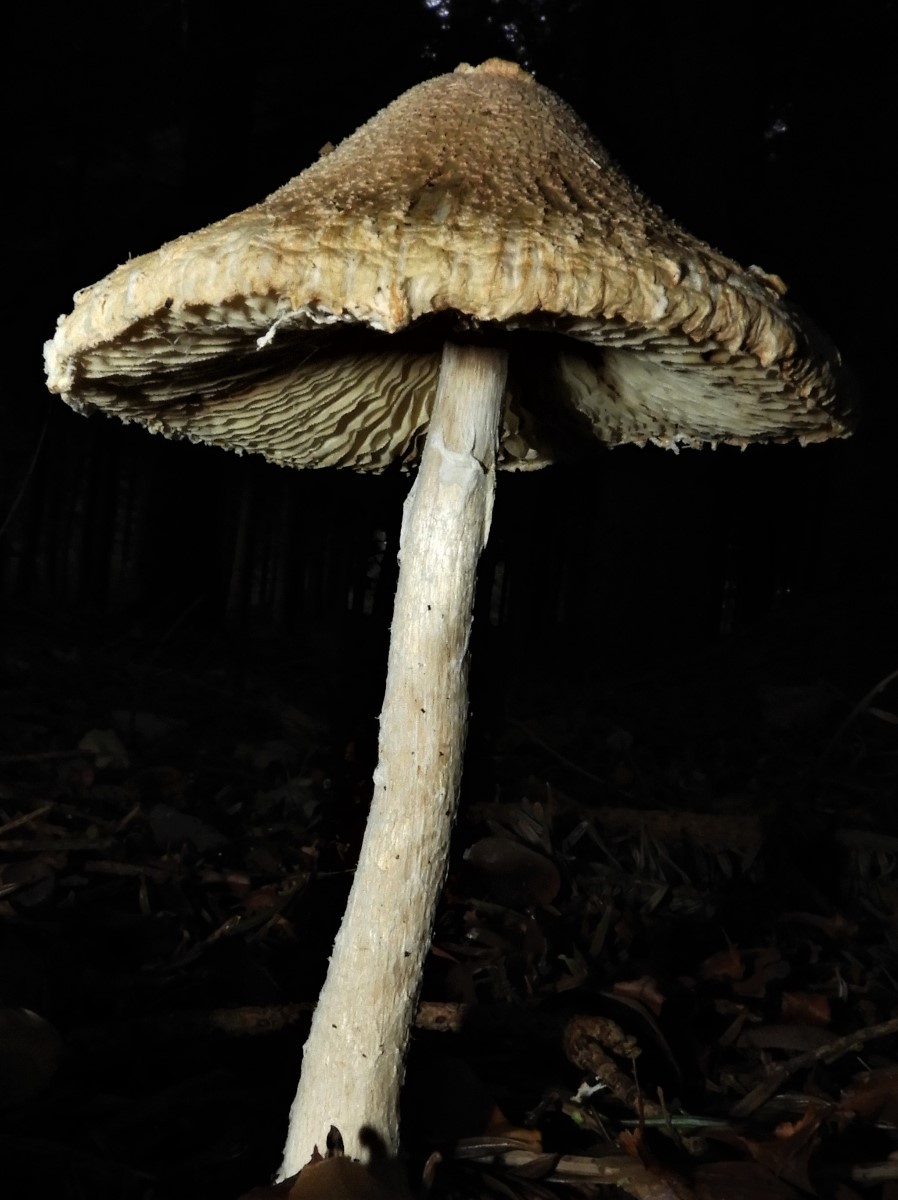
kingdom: Fungi
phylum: Basidiomycota
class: Agaricomycetes
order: Agaricales
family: Agaricaceae
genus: Lepiota
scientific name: Lepiota clypeolaria
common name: flosset parasolhat
